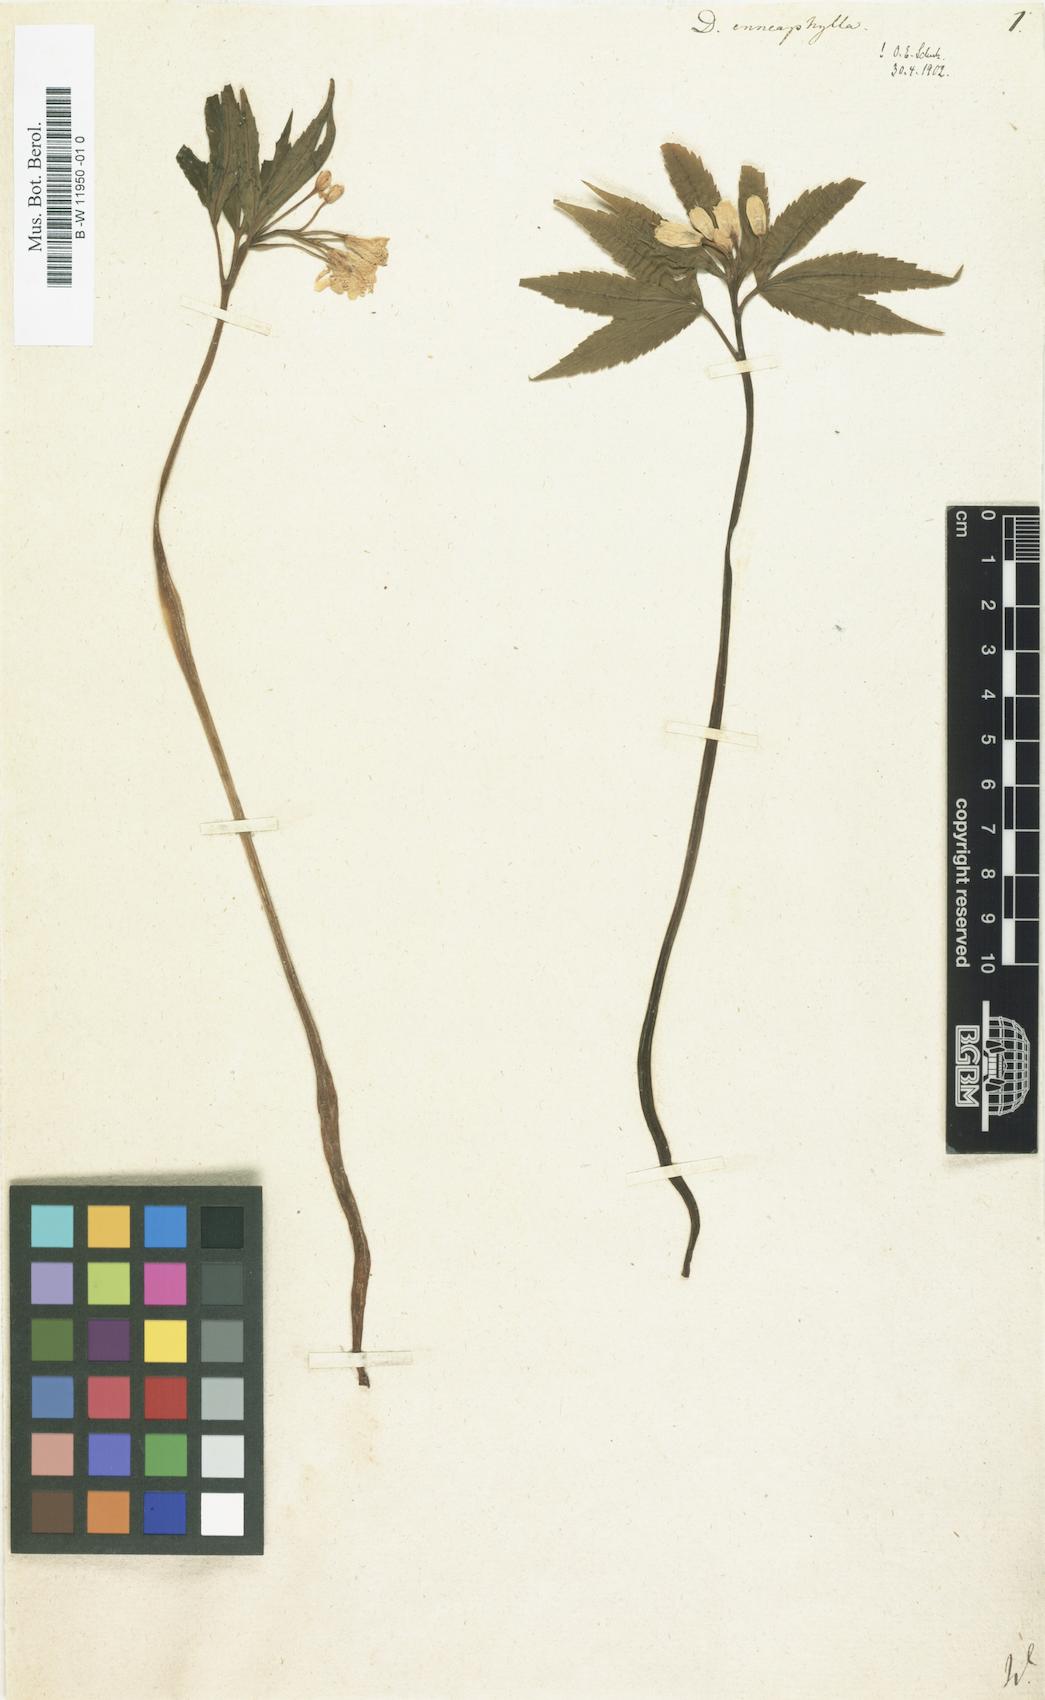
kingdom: Plantae
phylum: Tracheophyta
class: Magnoliopsida
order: Brassicales
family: Brassicaceae
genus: Cardamine
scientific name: Cardamine enneaphyllos
